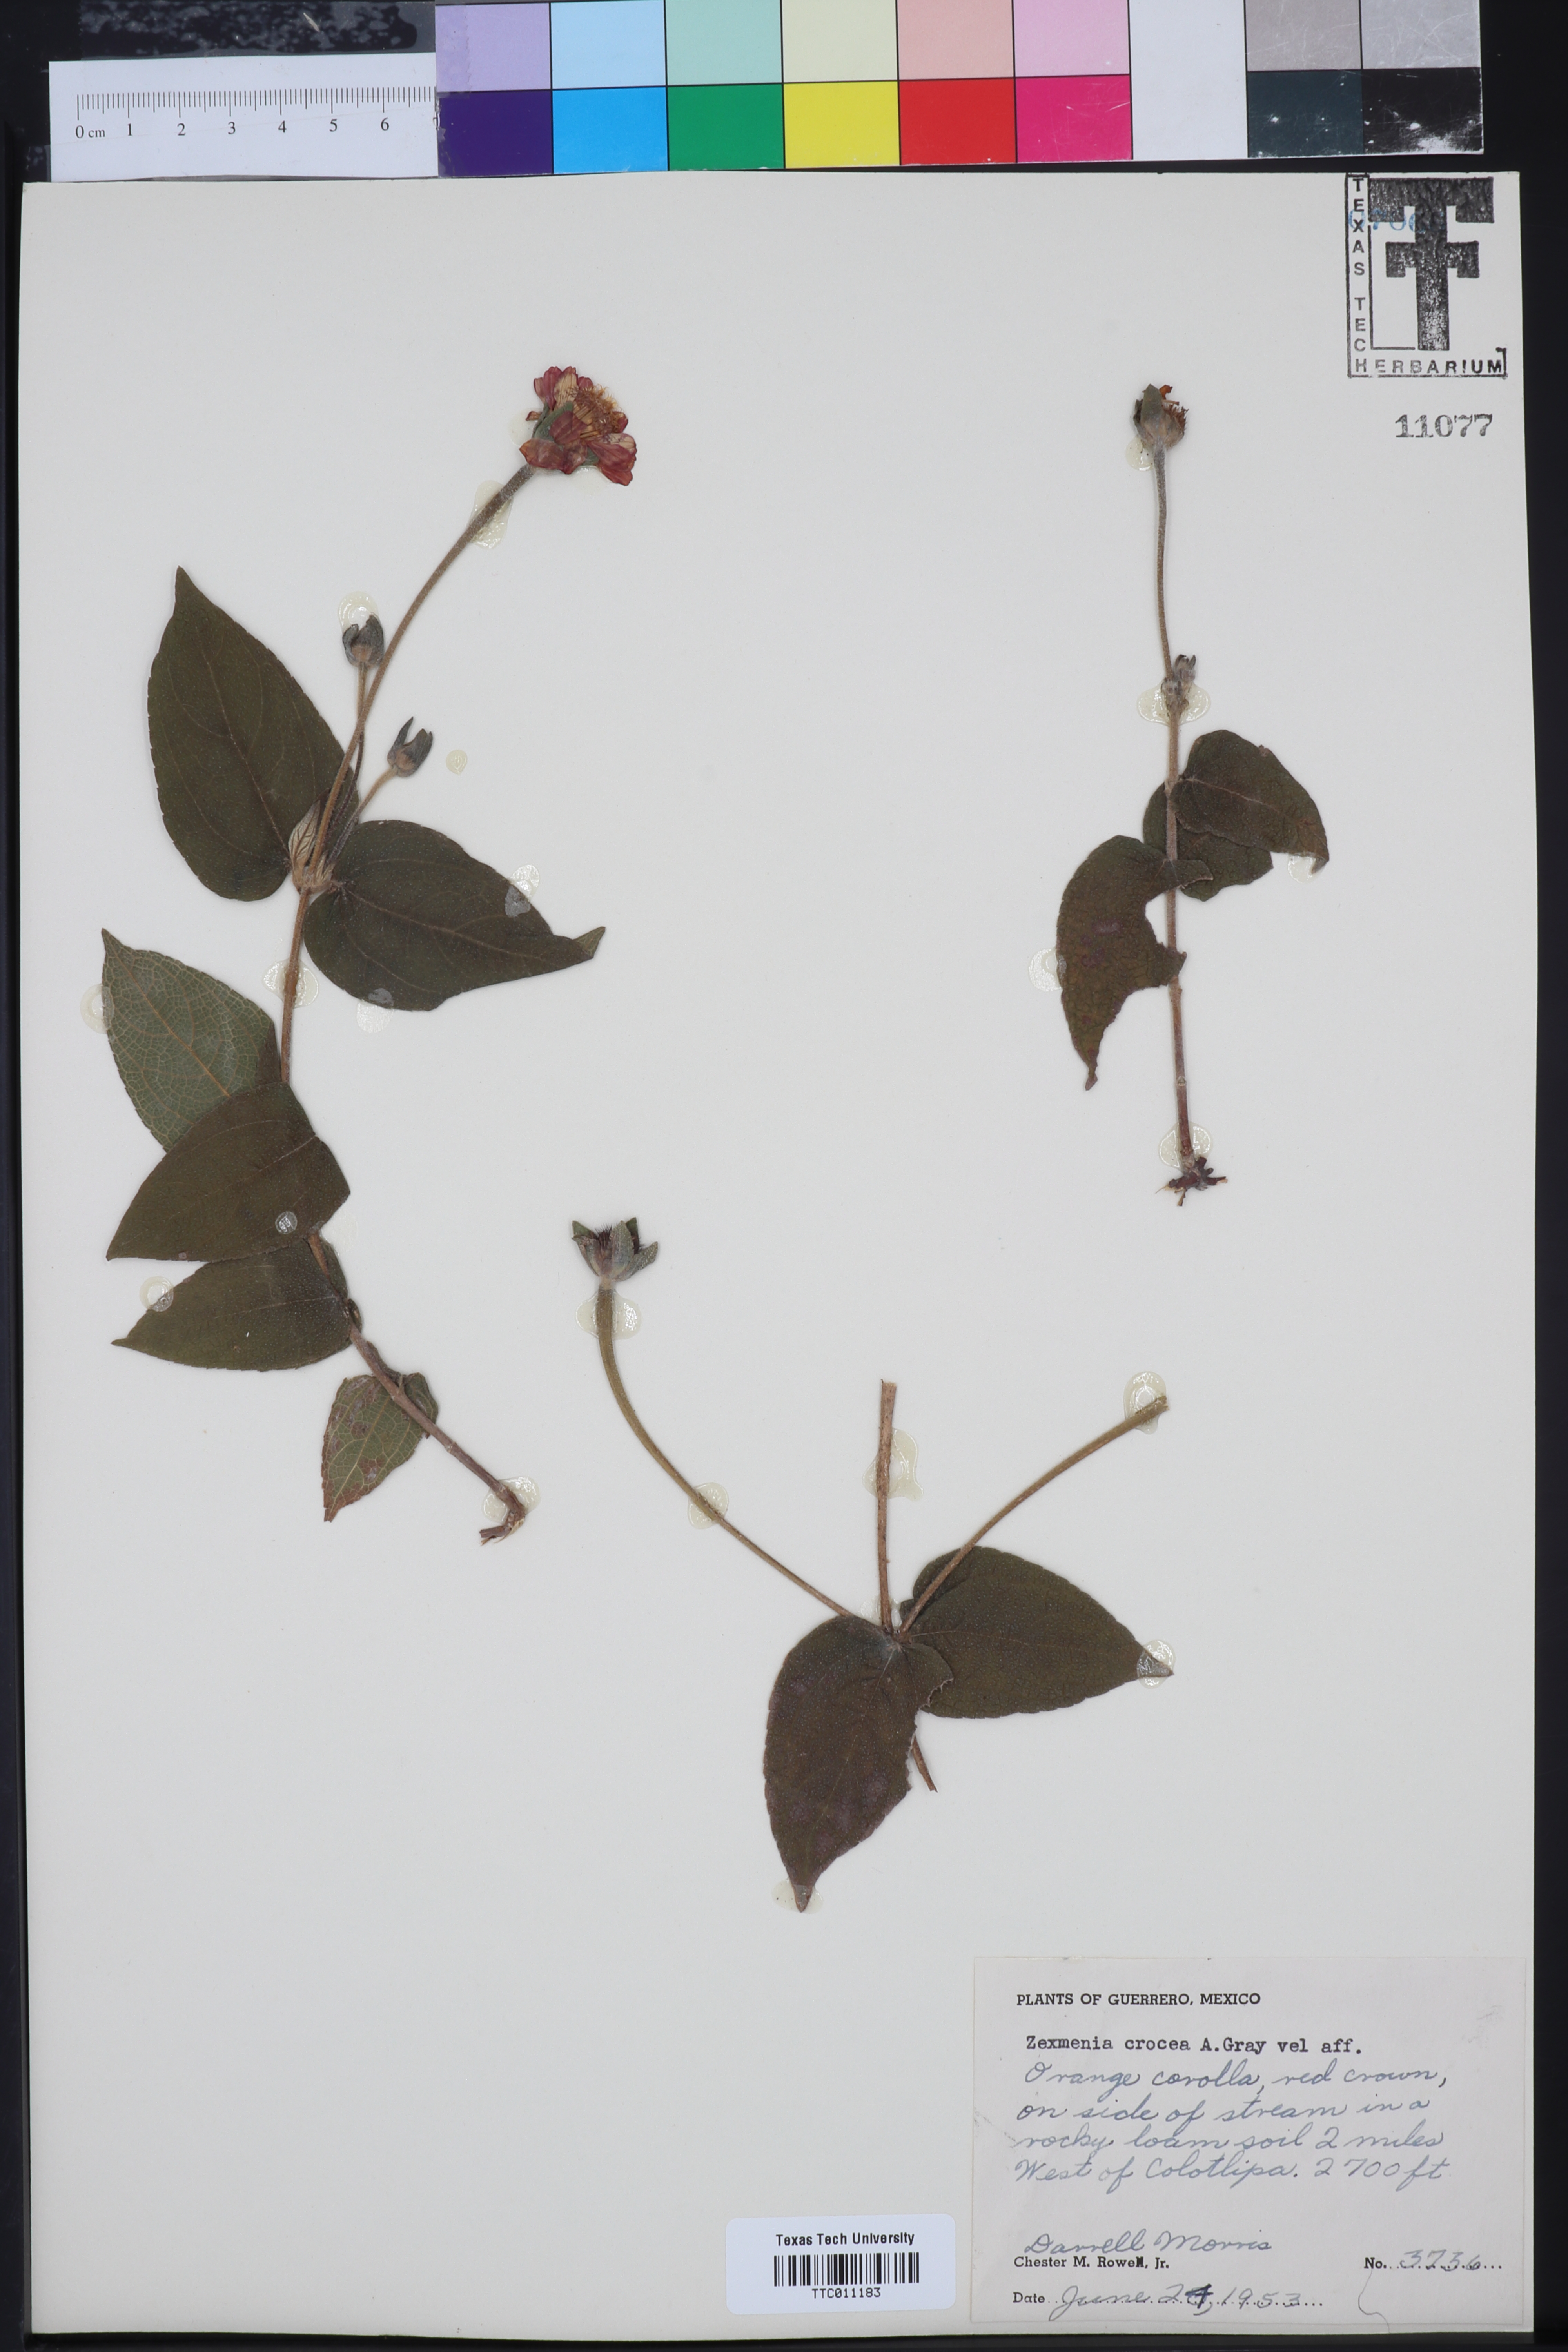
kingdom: Plantae
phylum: Tracheophyta
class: Magnoliopsida
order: Asterales
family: Asteraceae
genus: Lasianthaea
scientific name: Lasianthaea crocea
